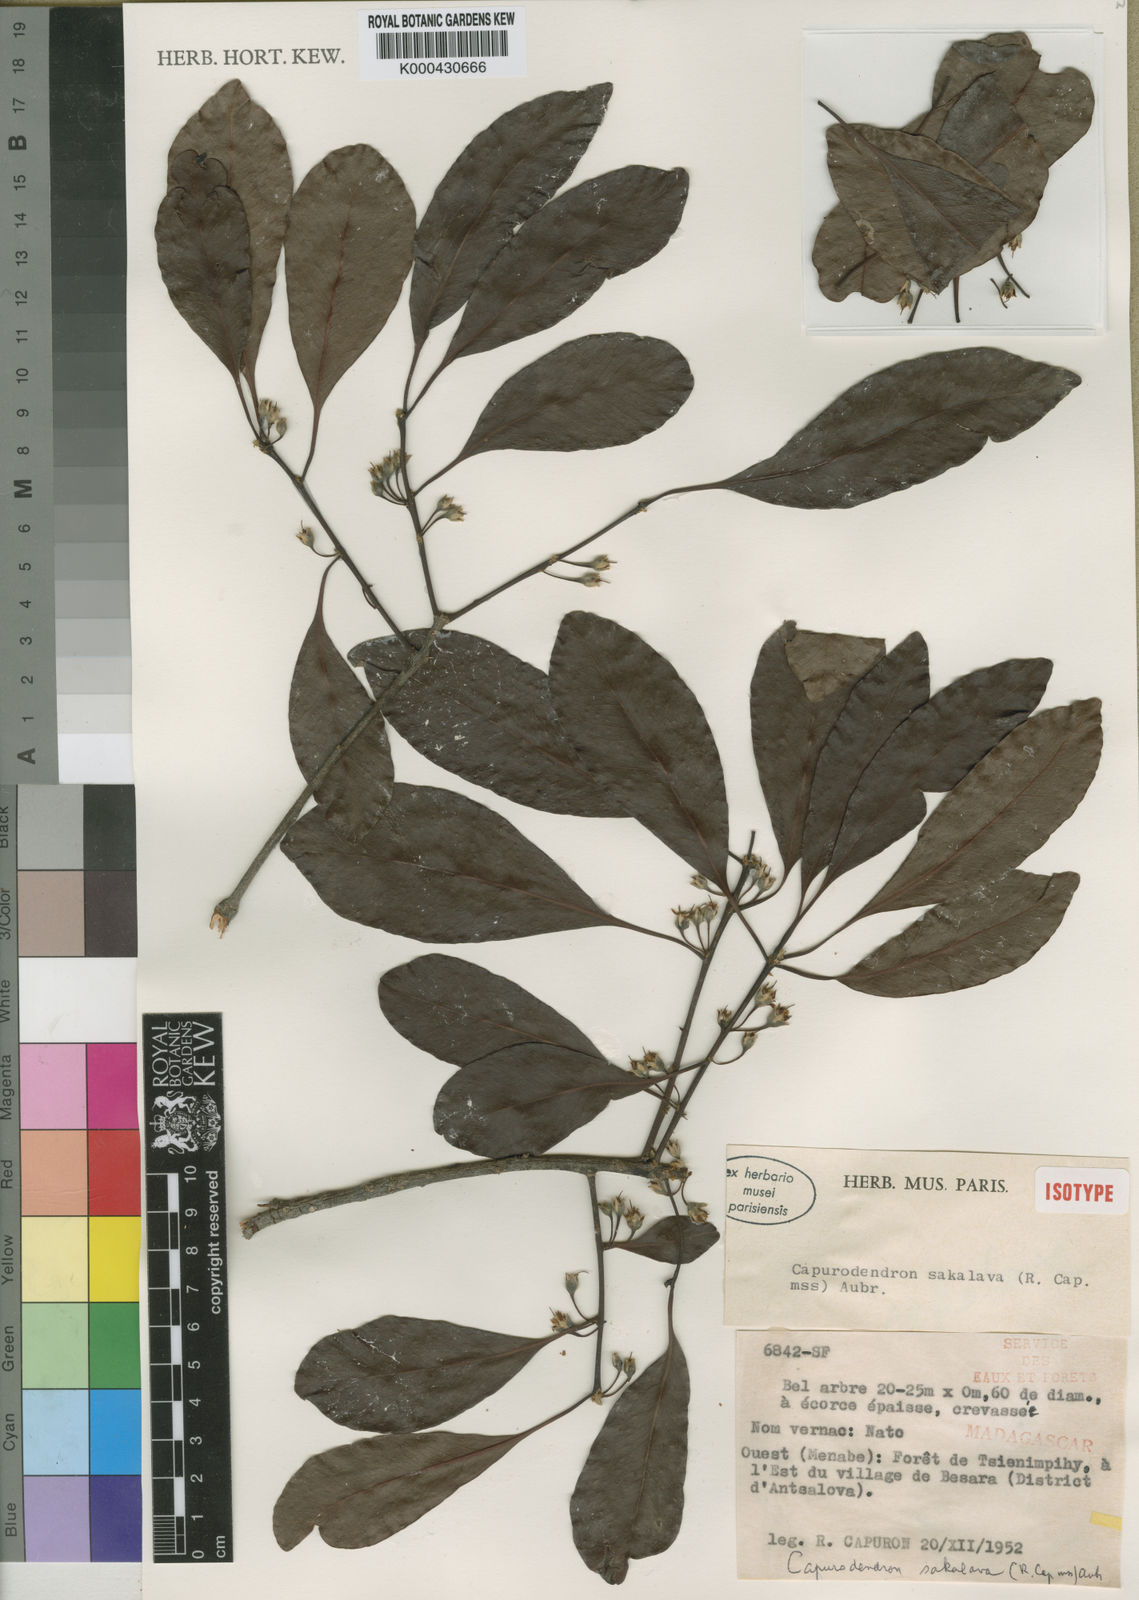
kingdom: Plantae
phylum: Tracheophyta
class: Magnoliopsida
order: Ericales
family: Sapotaceae
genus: Capurodendron
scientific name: Capurodendron
